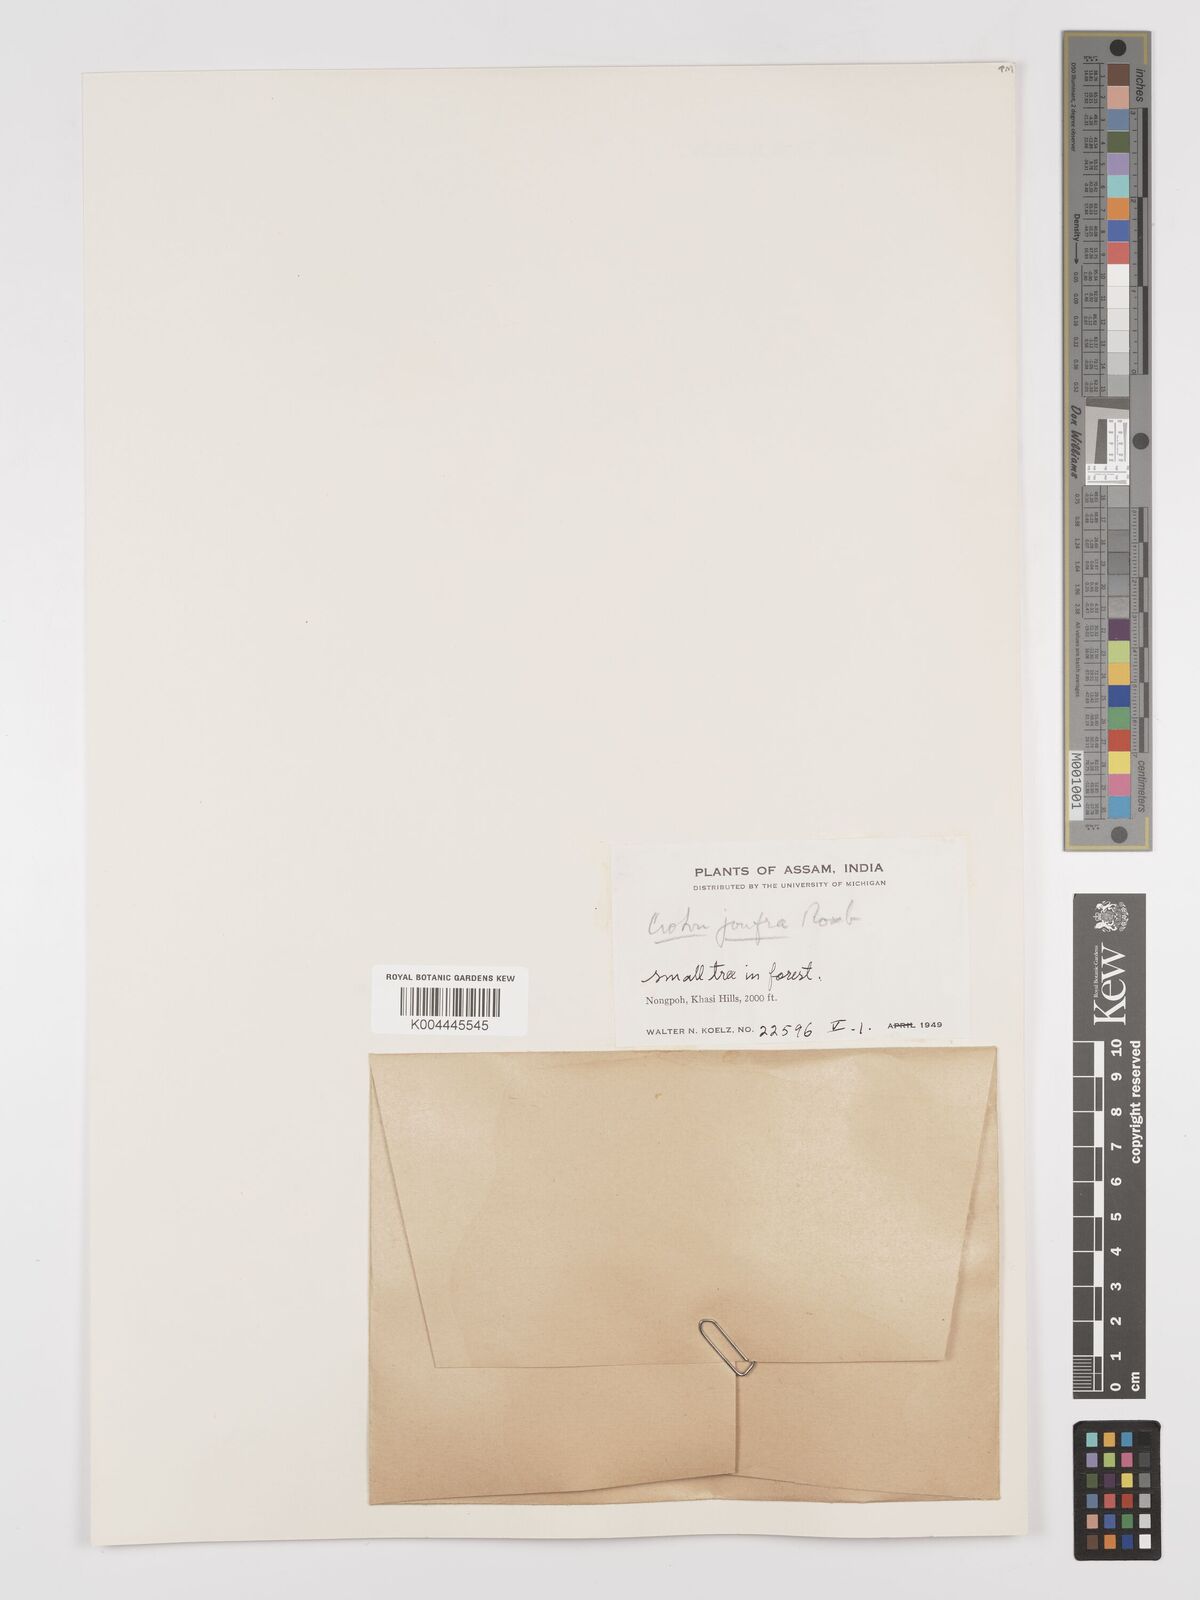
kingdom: Plantae
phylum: Tracheophyta
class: Magnoliopsida
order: Malpighiales
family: Euphorbiaceae
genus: Croton
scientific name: Croton joufra
